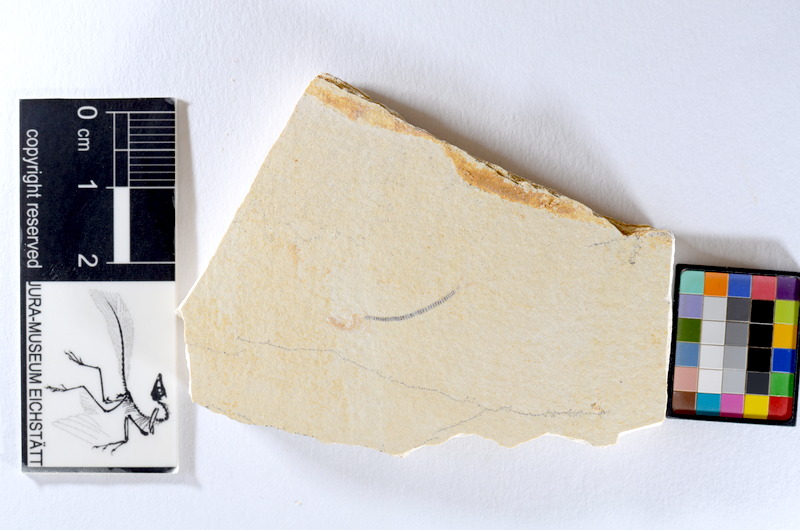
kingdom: Animalia
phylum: Chordata
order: Salmoniformes
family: Orthogonikleithridae
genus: Orthogonikleithrus
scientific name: Orthogonikleithrus hoelli
